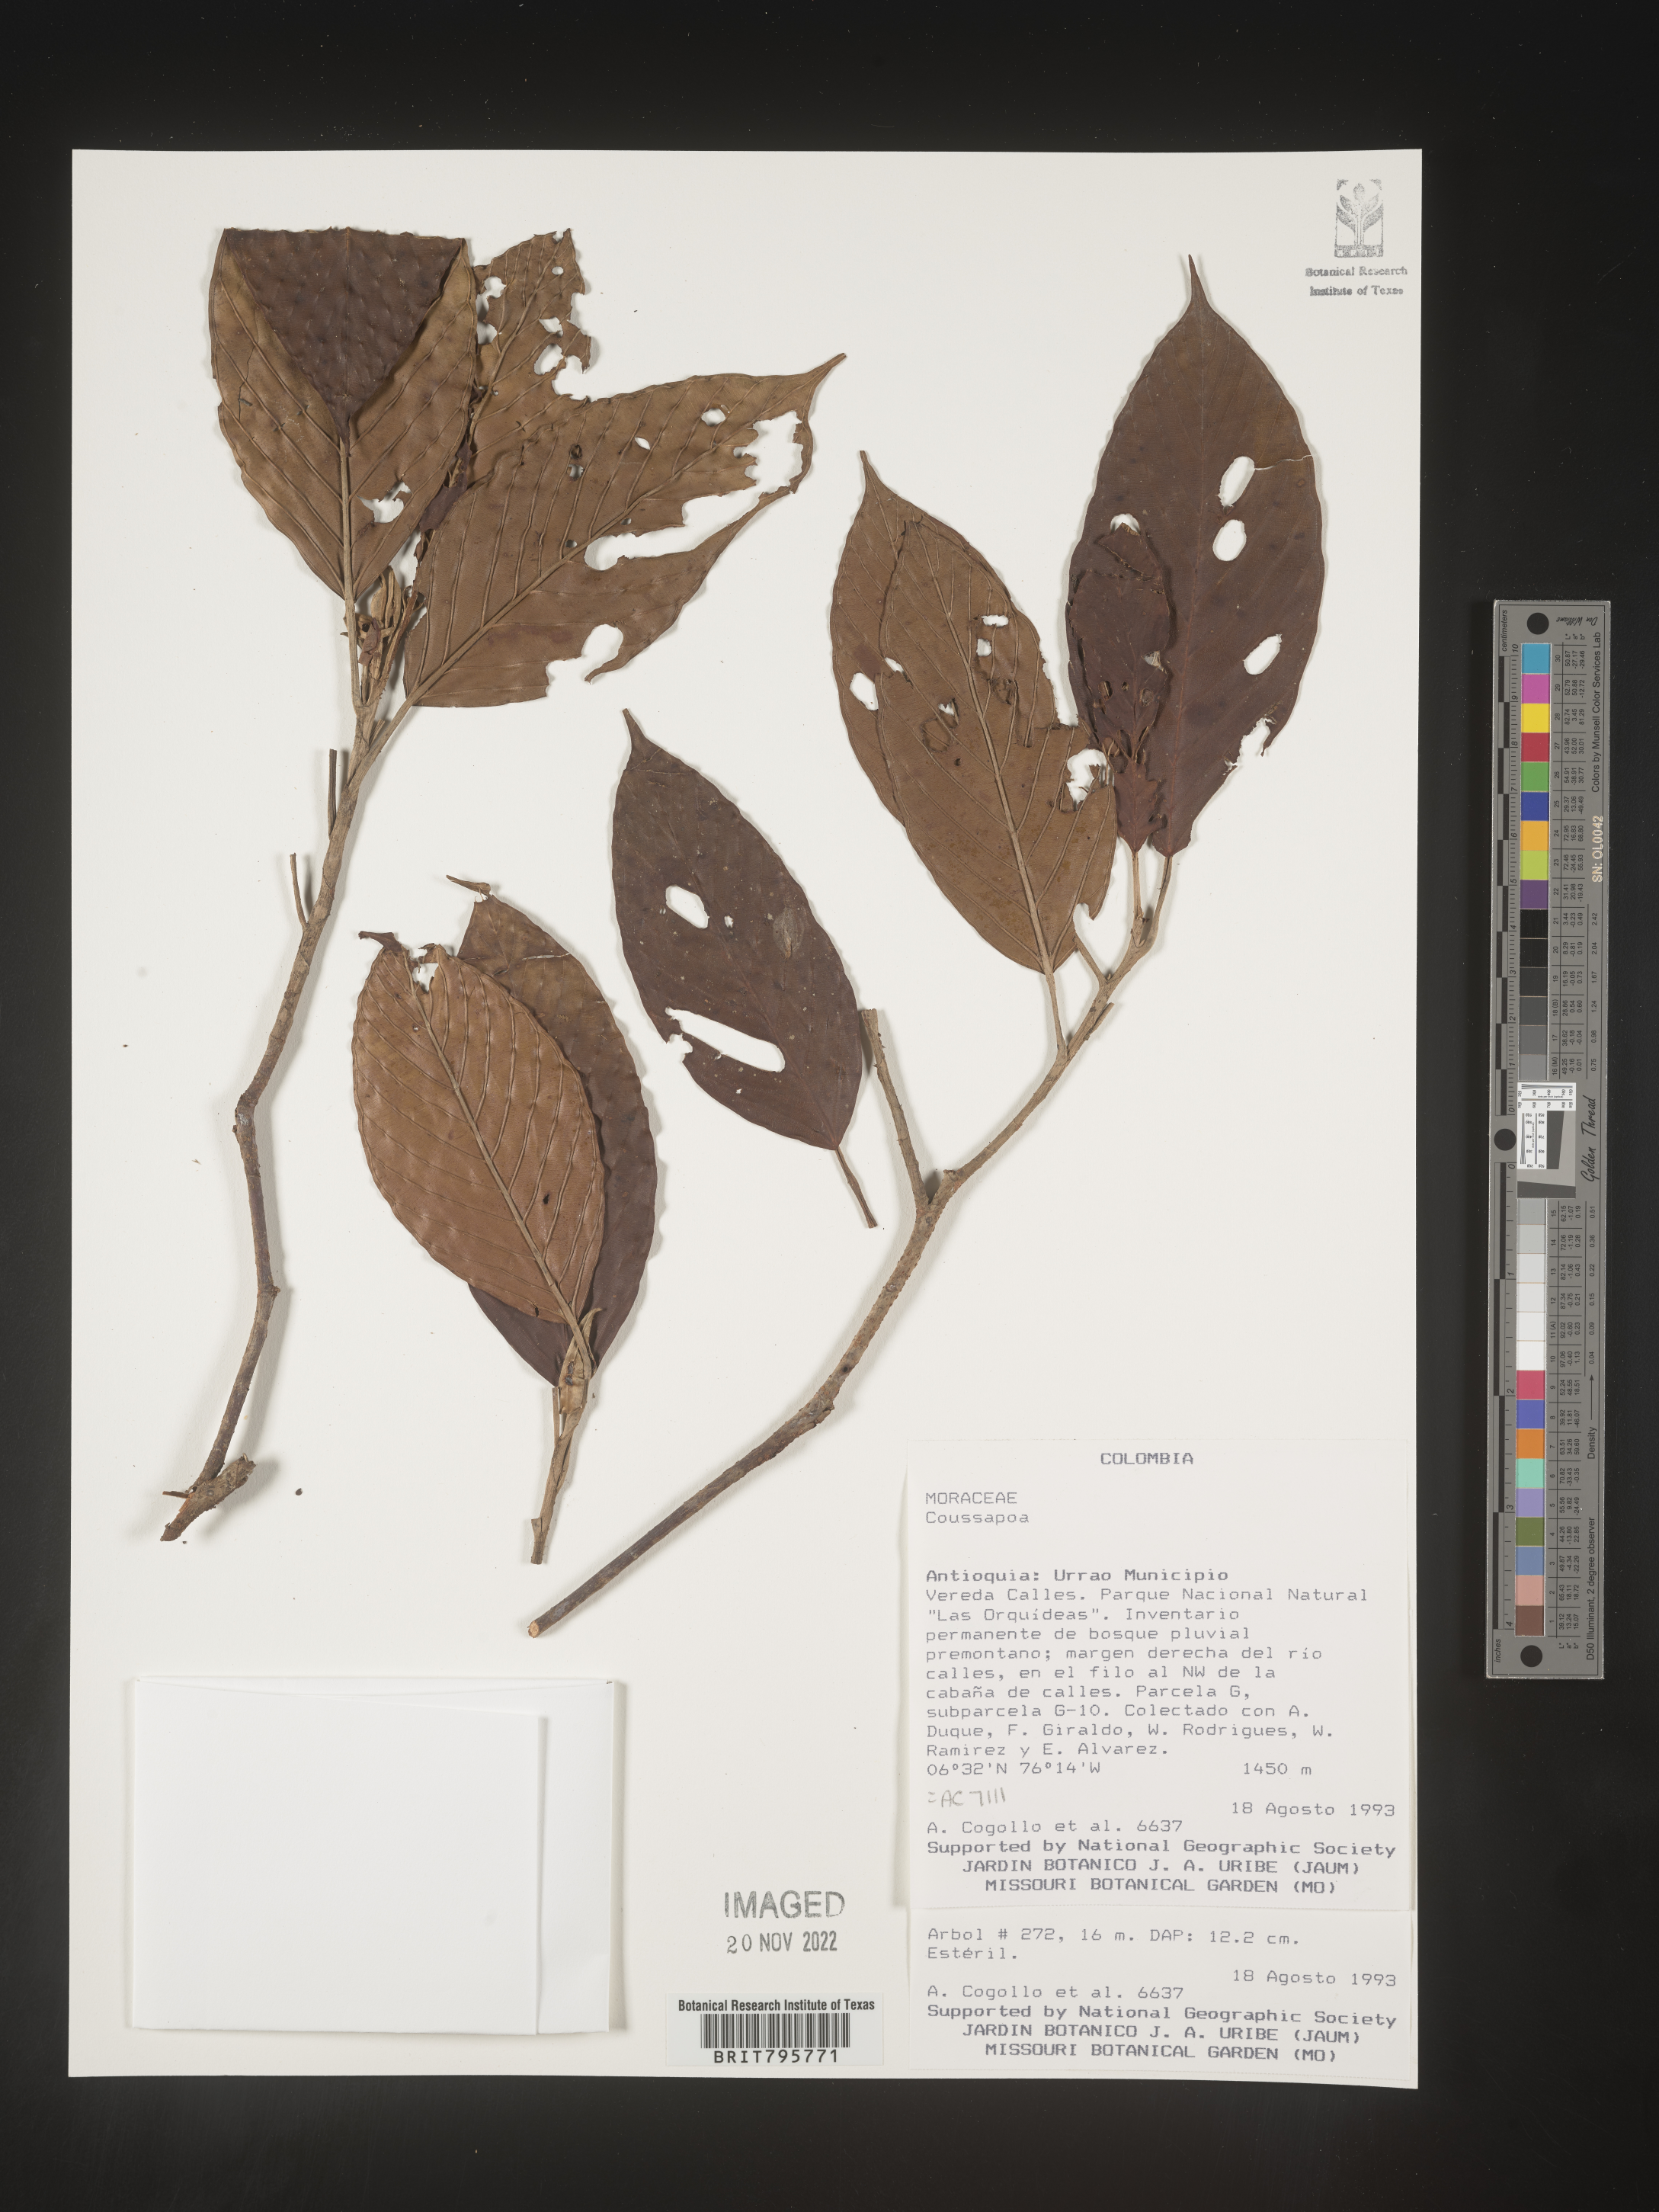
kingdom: Plantae
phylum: Tracheophyta
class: Magnoliopsida
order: Rosales
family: Urticaceae
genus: Coussapoa
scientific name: Coussapoa
